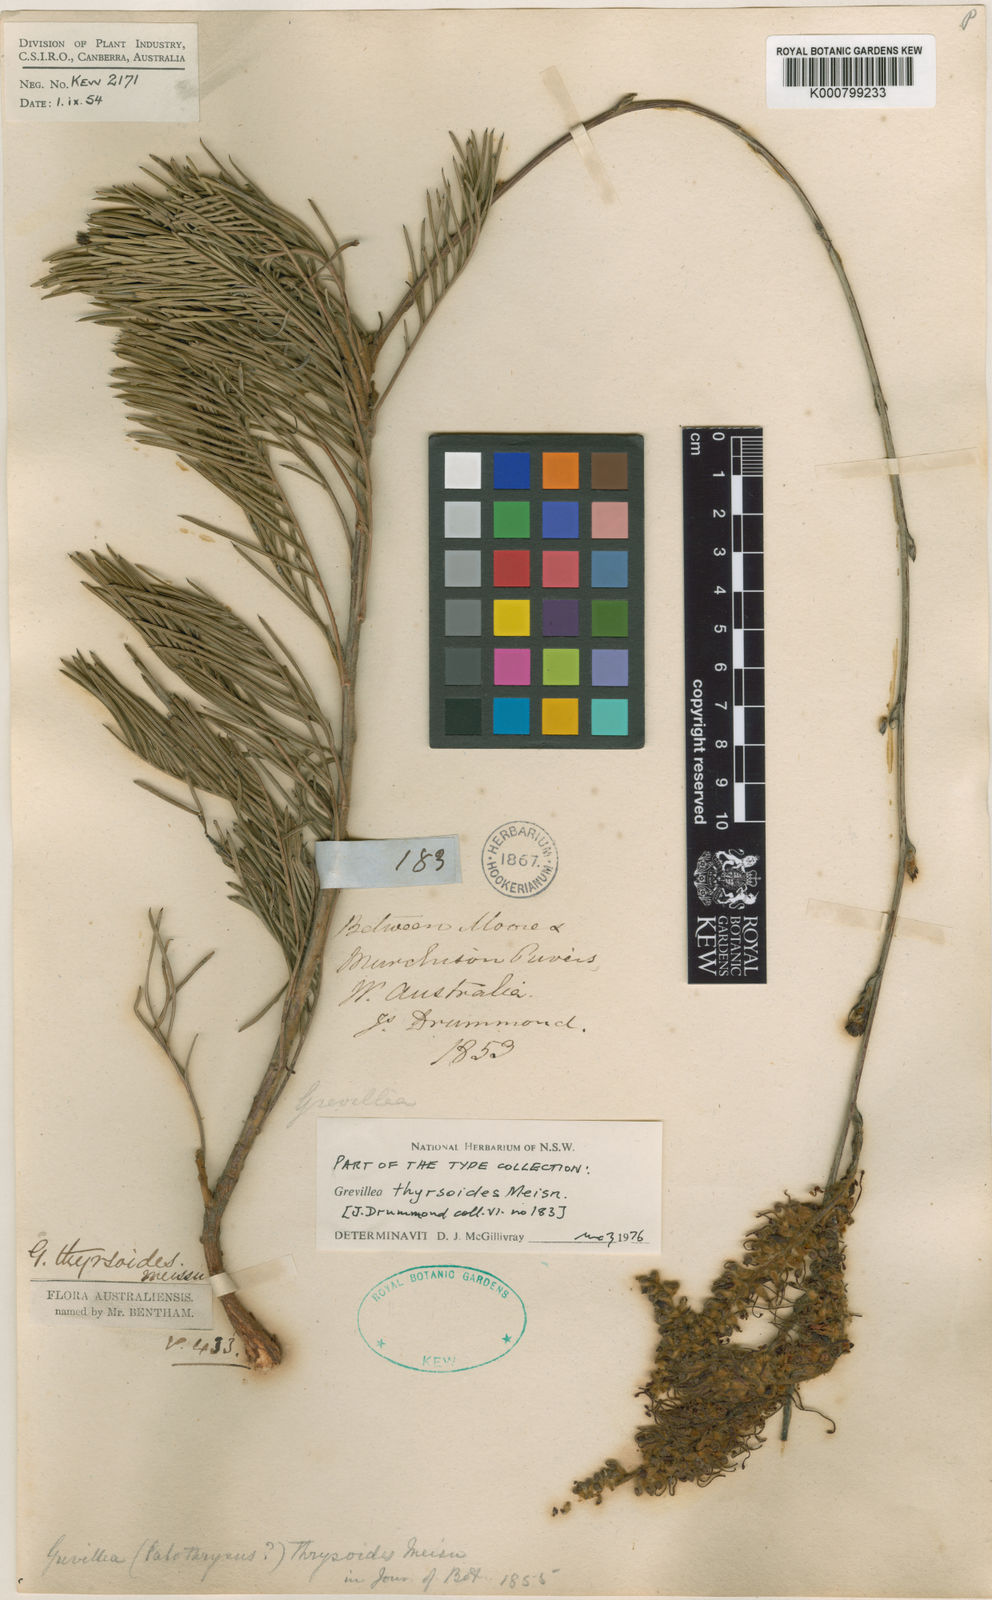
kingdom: Plantae
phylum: Tracheophyta
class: Magnoliopsida
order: Proteales
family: Proteaceae
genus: Grevillea
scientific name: Grevillea thyrsoides
